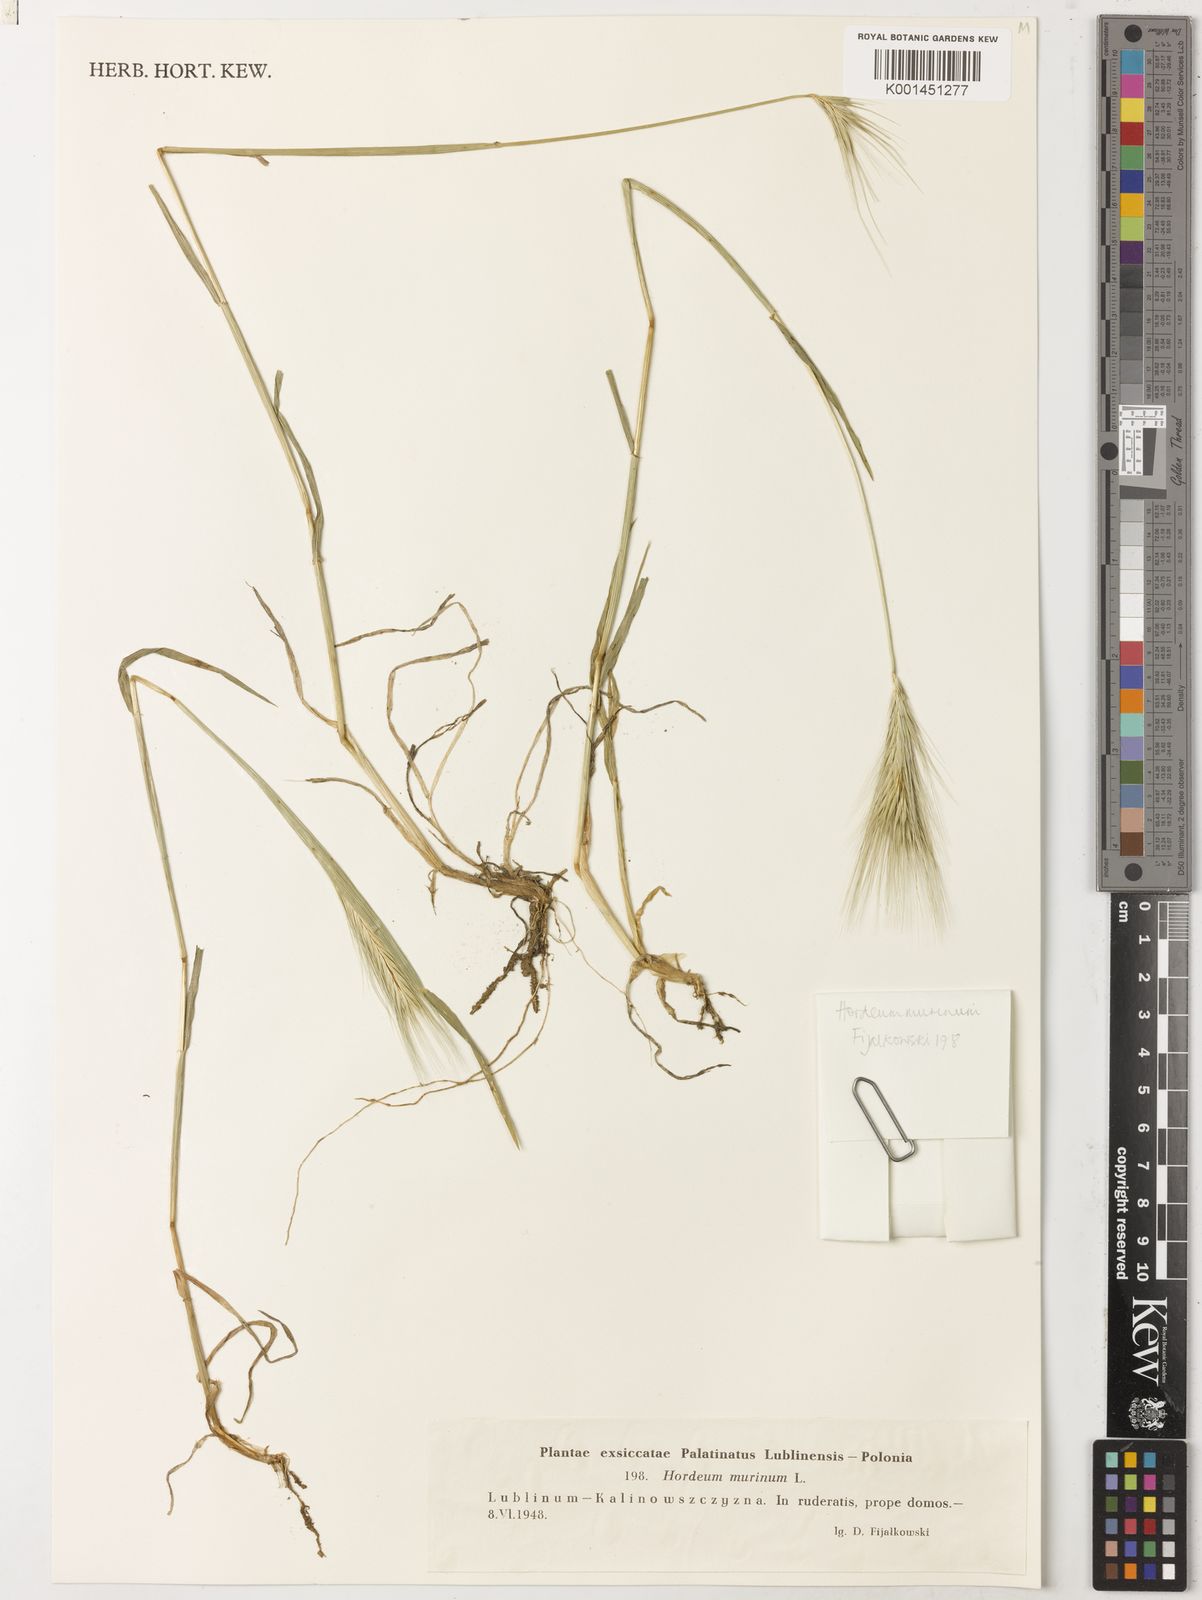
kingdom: Plantae
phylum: Tracheophyta
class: Liliopsida
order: Poales
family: Poaceae
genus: Hordeum
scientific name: Hordeum murinum
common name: Wall barley
